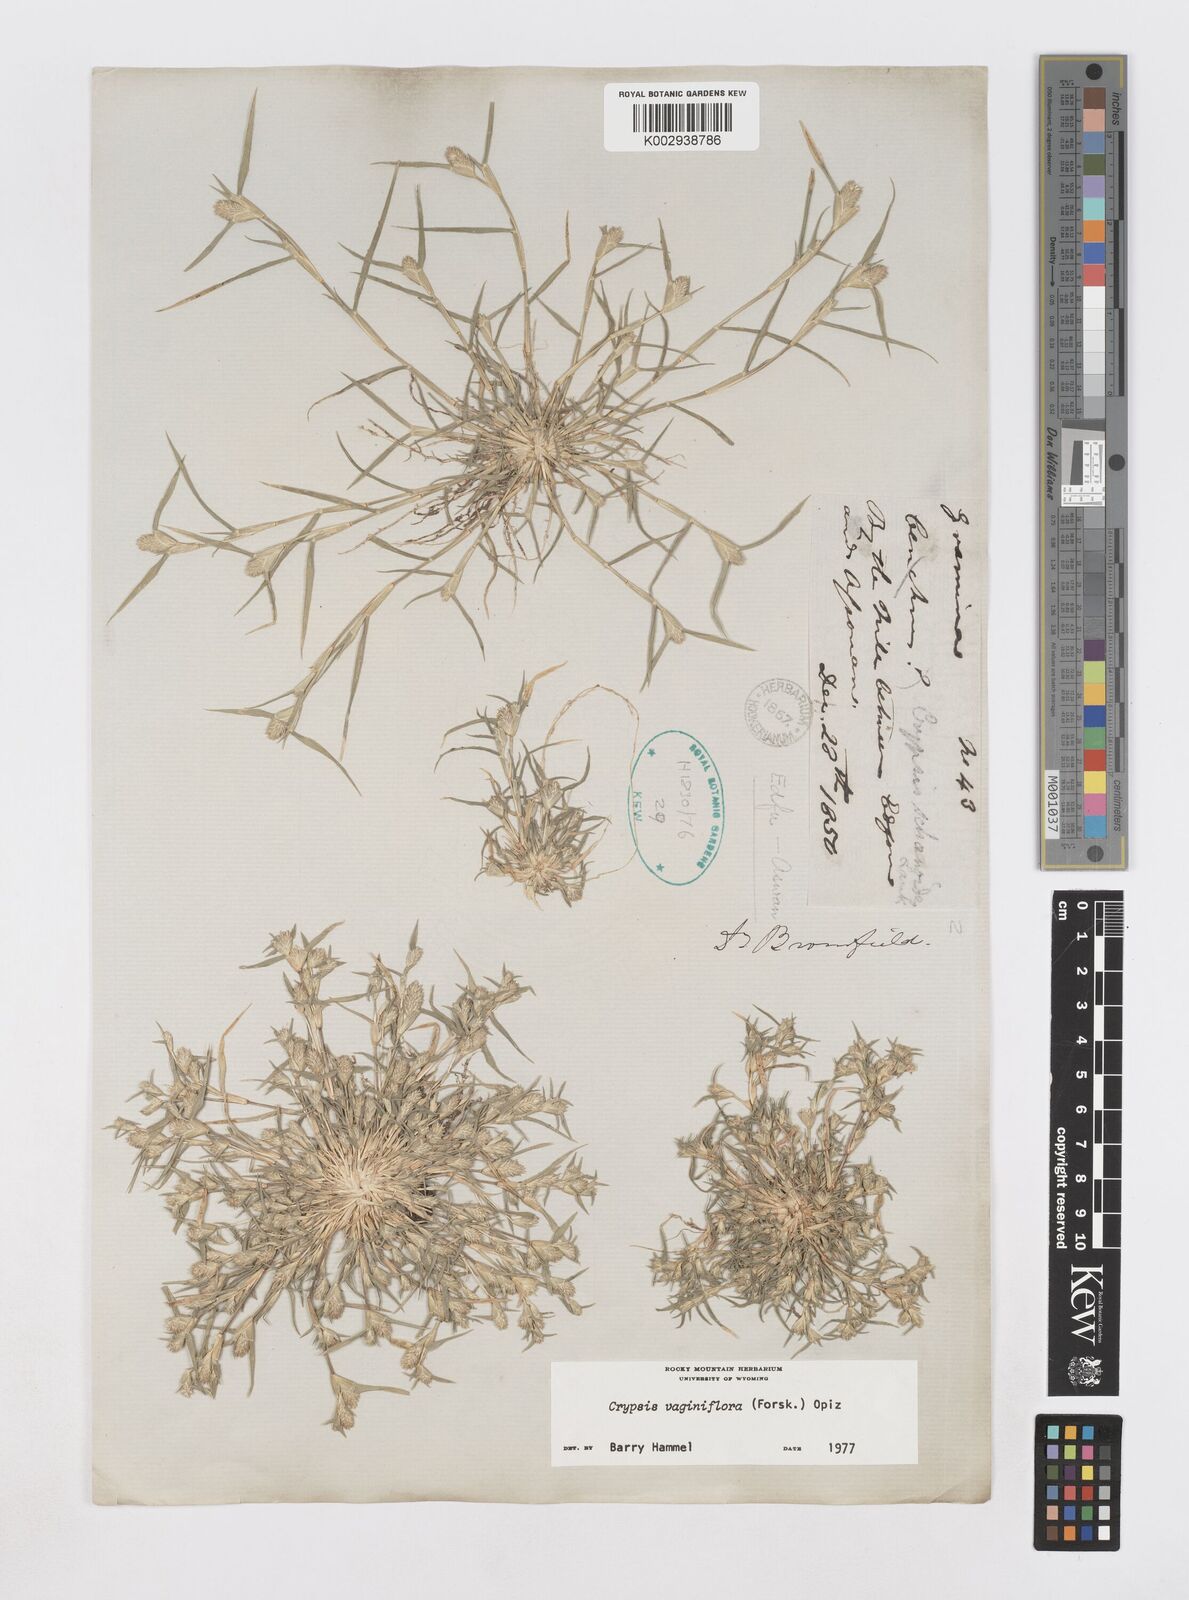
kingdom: Plantae
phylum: Tracheophyta
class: Liliopsida
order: Poales
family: Poaceae
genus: Sporobolus
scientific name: Sporobolus niliacus
